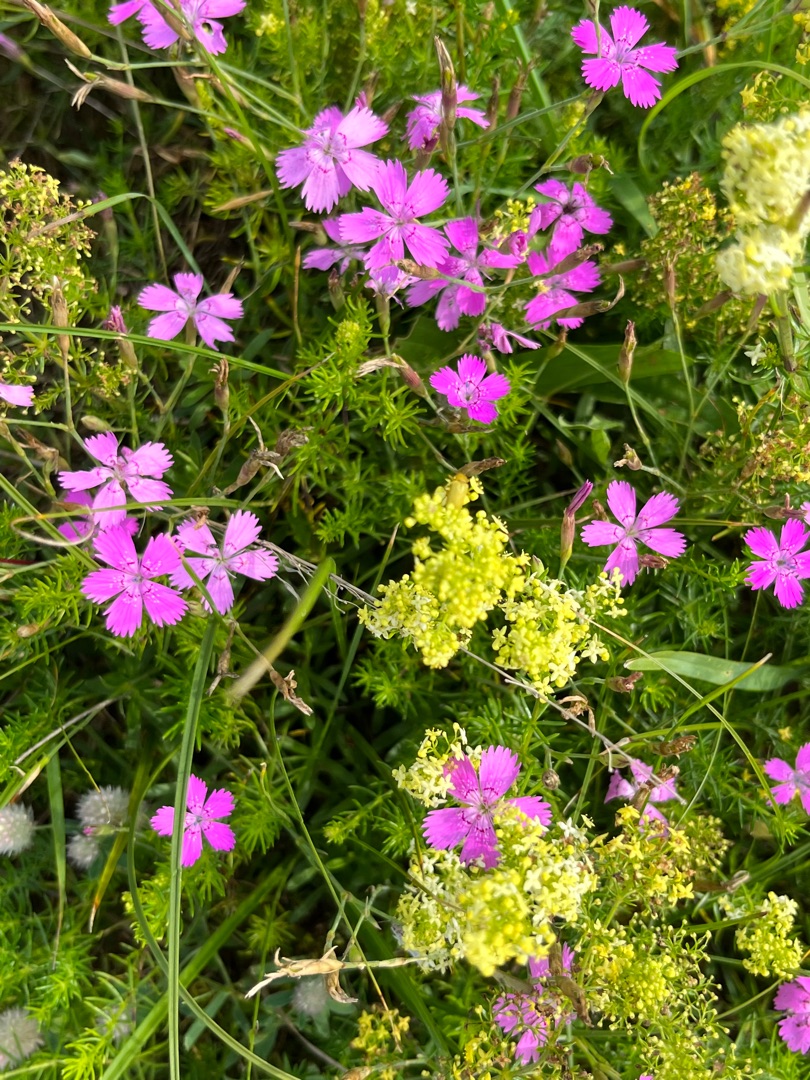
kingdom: Plantae
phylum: Tracheophyta
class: Magnoliopsida
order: Caryophyllales
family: Caryophyllaceae
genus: Dianthus
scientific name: Dianthus deltoides
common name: Bakke-nellike
